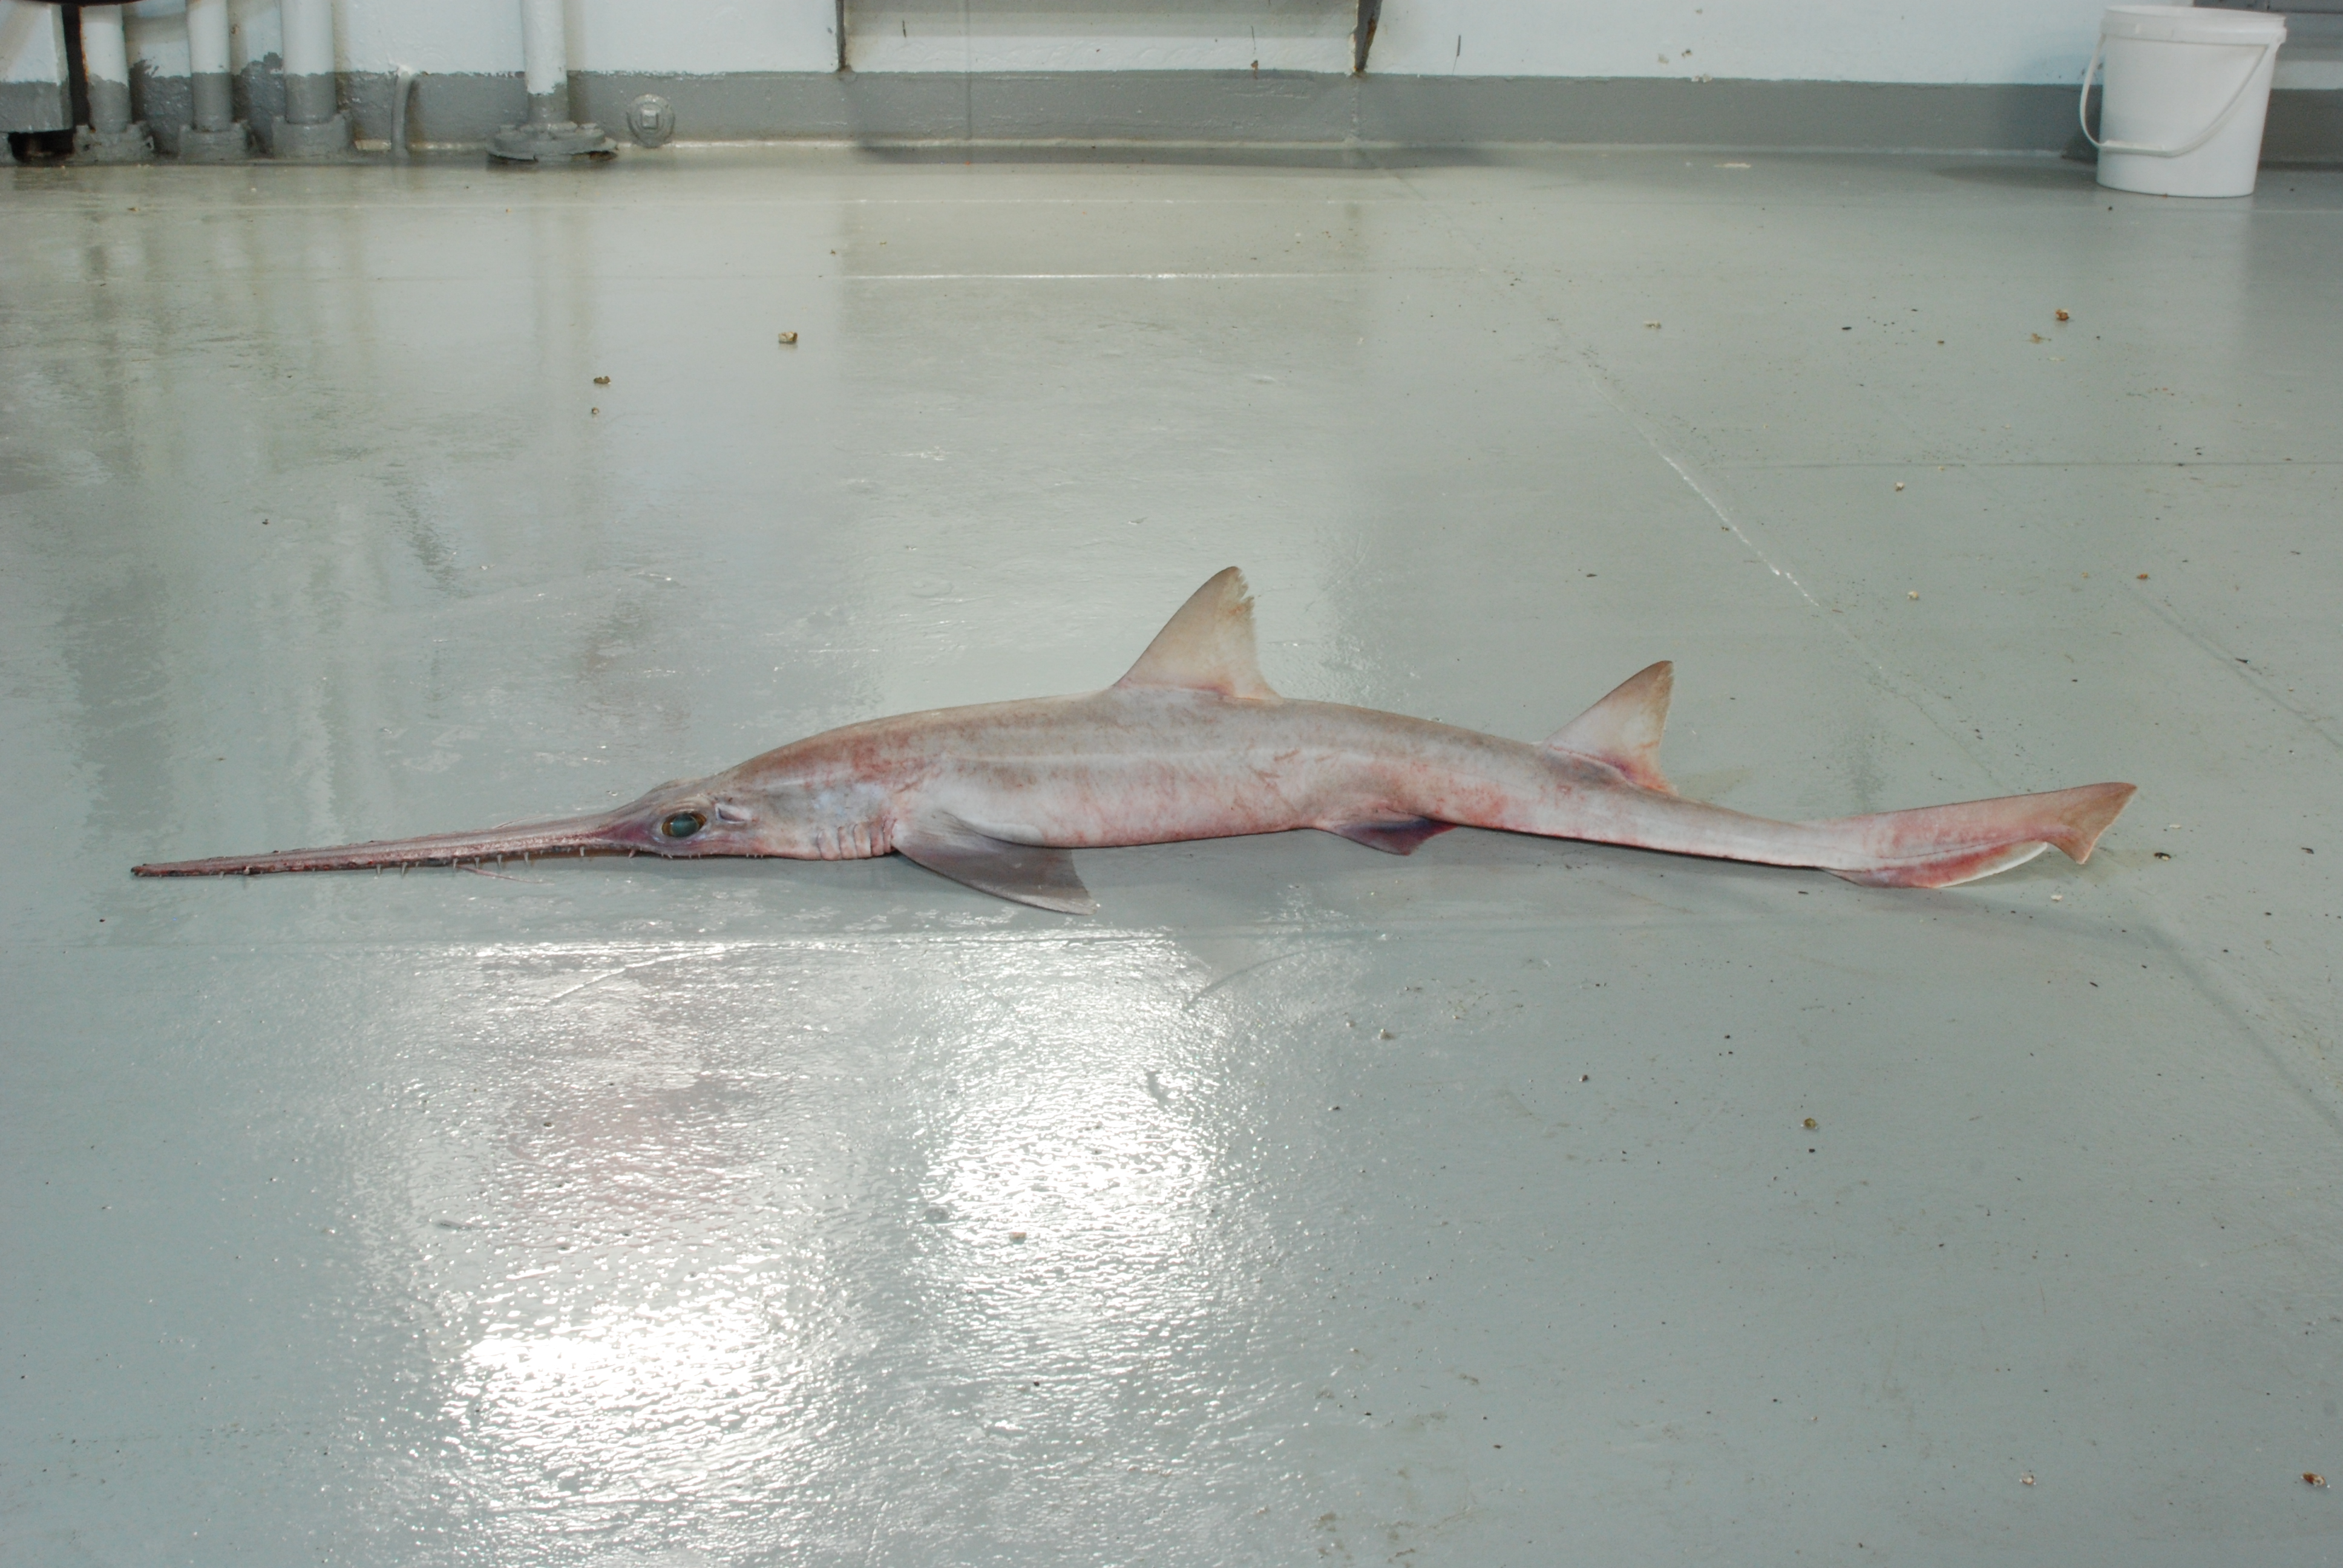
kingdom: Animalia
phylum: Chordata
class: Elasmobranchii
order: Pristiophoriformes
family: Pristiophoridae
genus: Pliotrema
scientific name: Pliotrema
